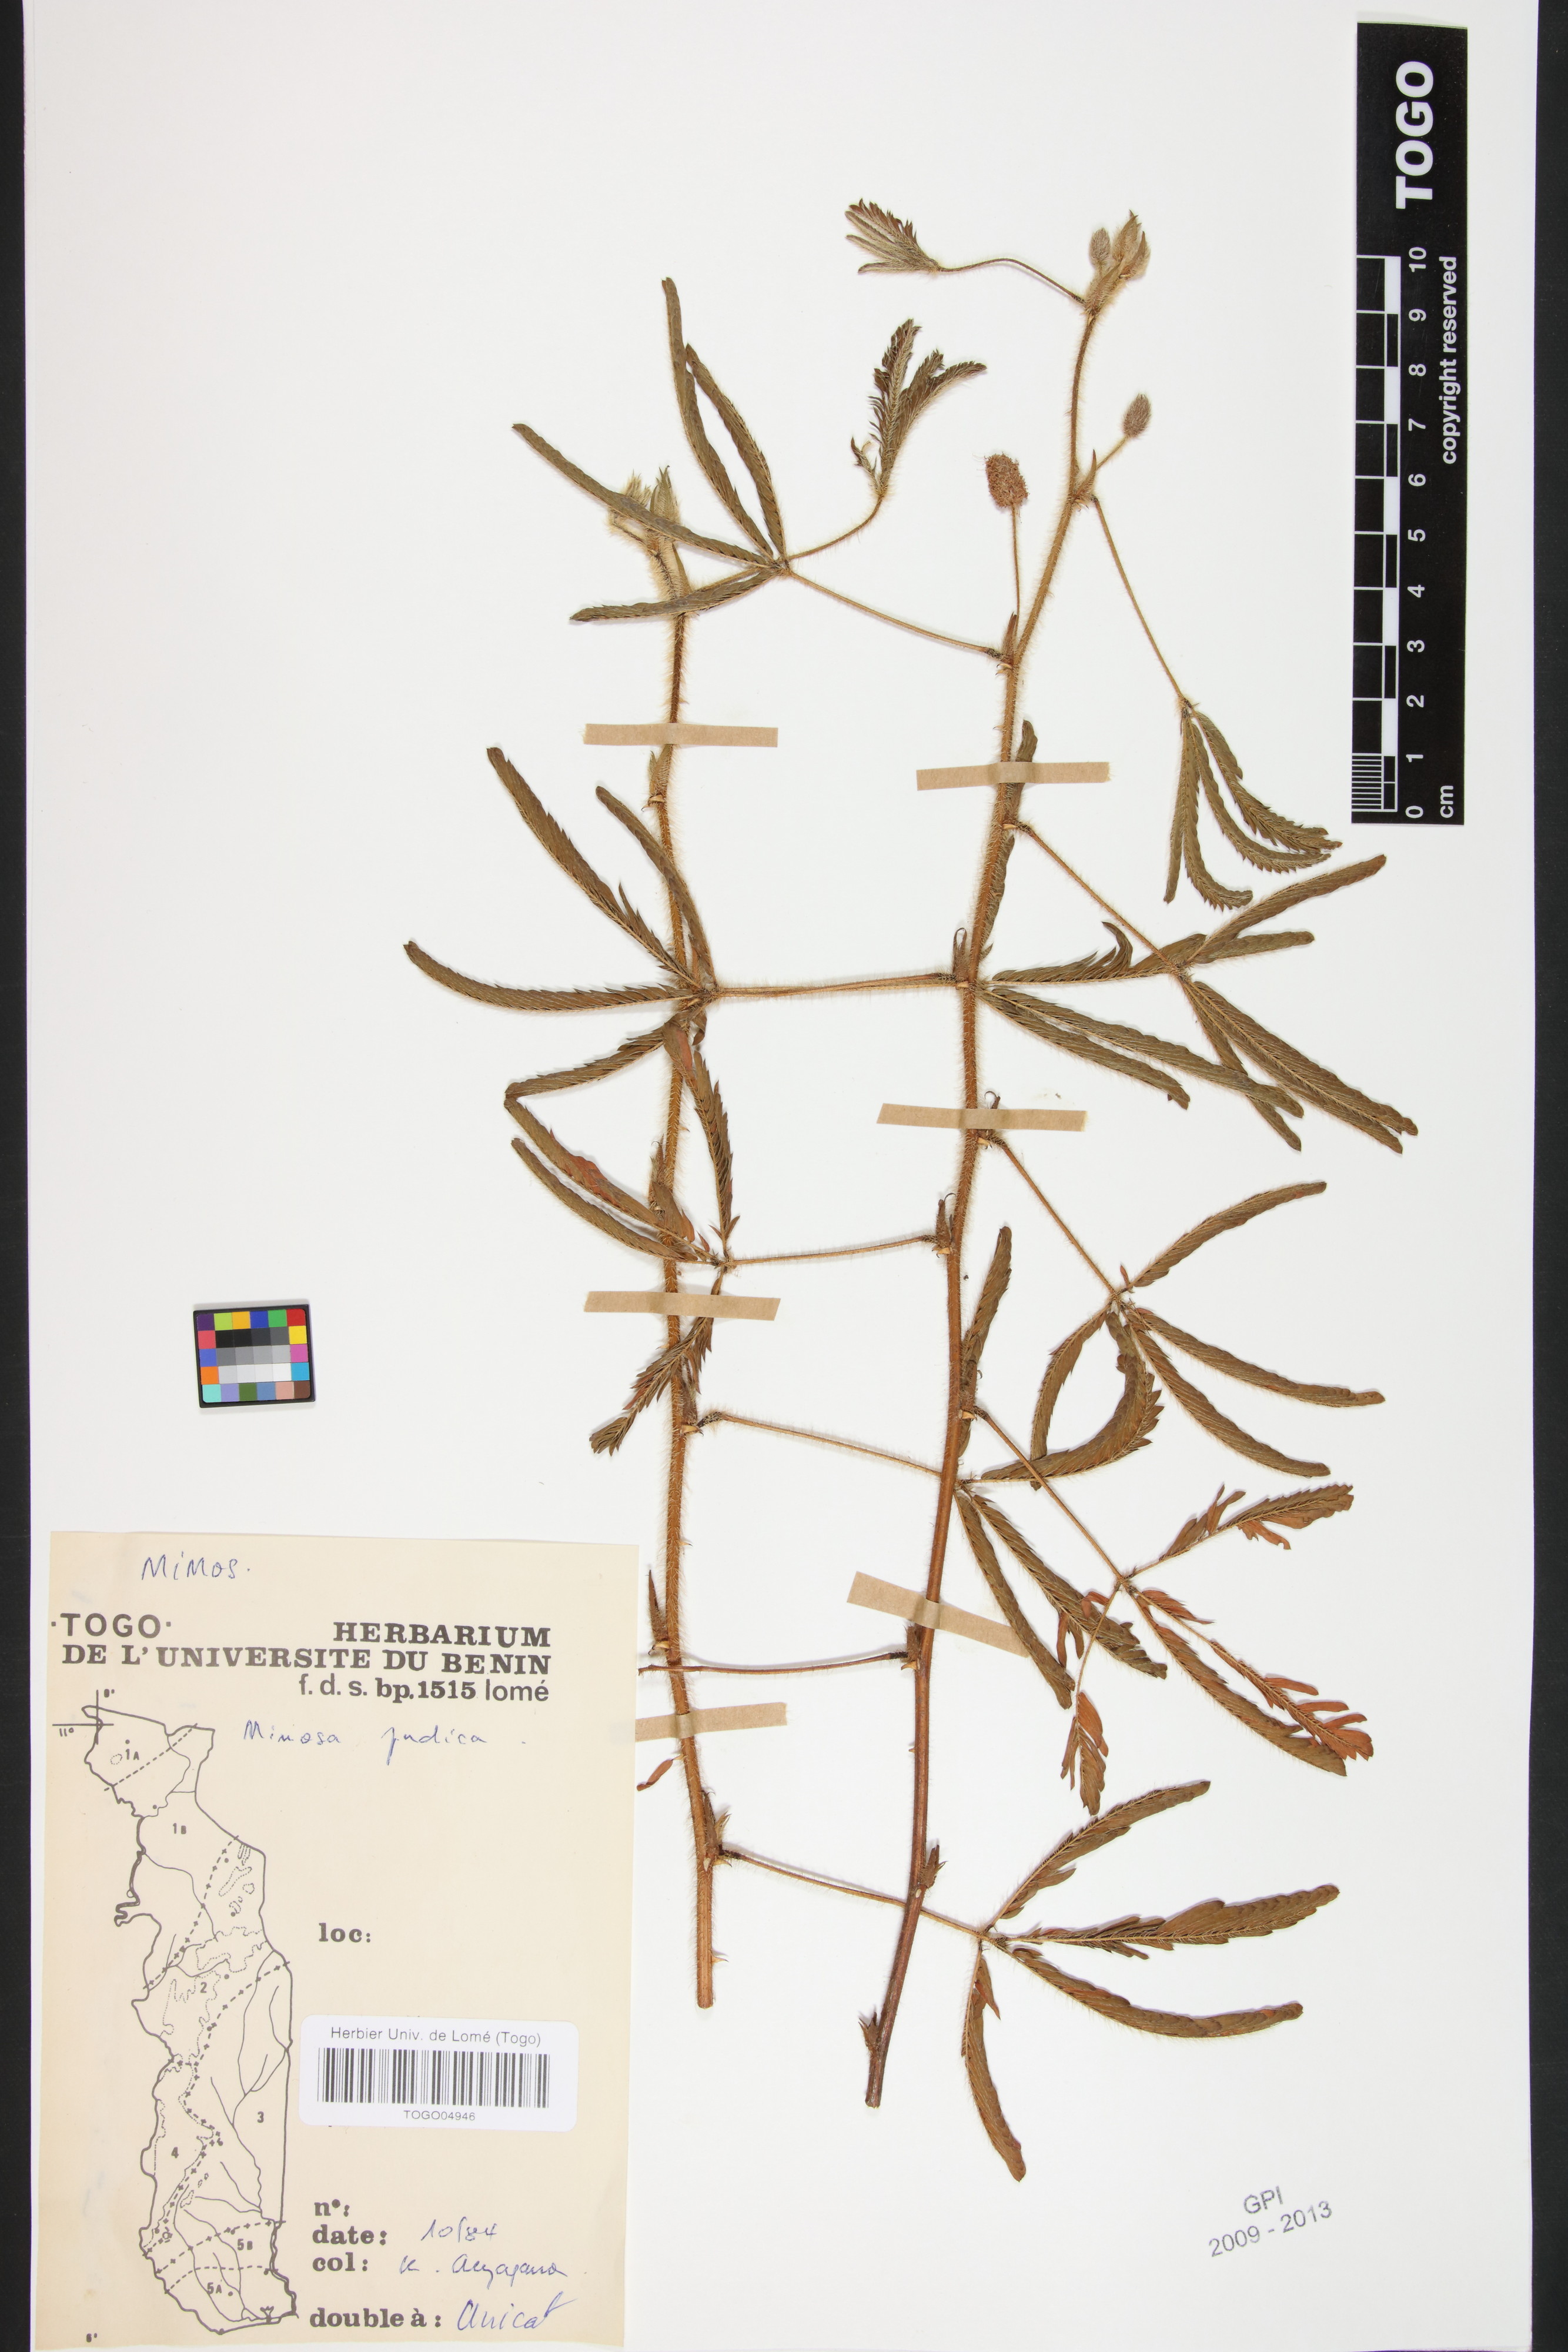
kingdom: Plantae
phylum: Tracheophyta
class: Magnoliopsida
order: Fabales
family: Fabaceae
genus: Mimosa
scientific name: Mimosa pudica
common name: Sensitive plant
